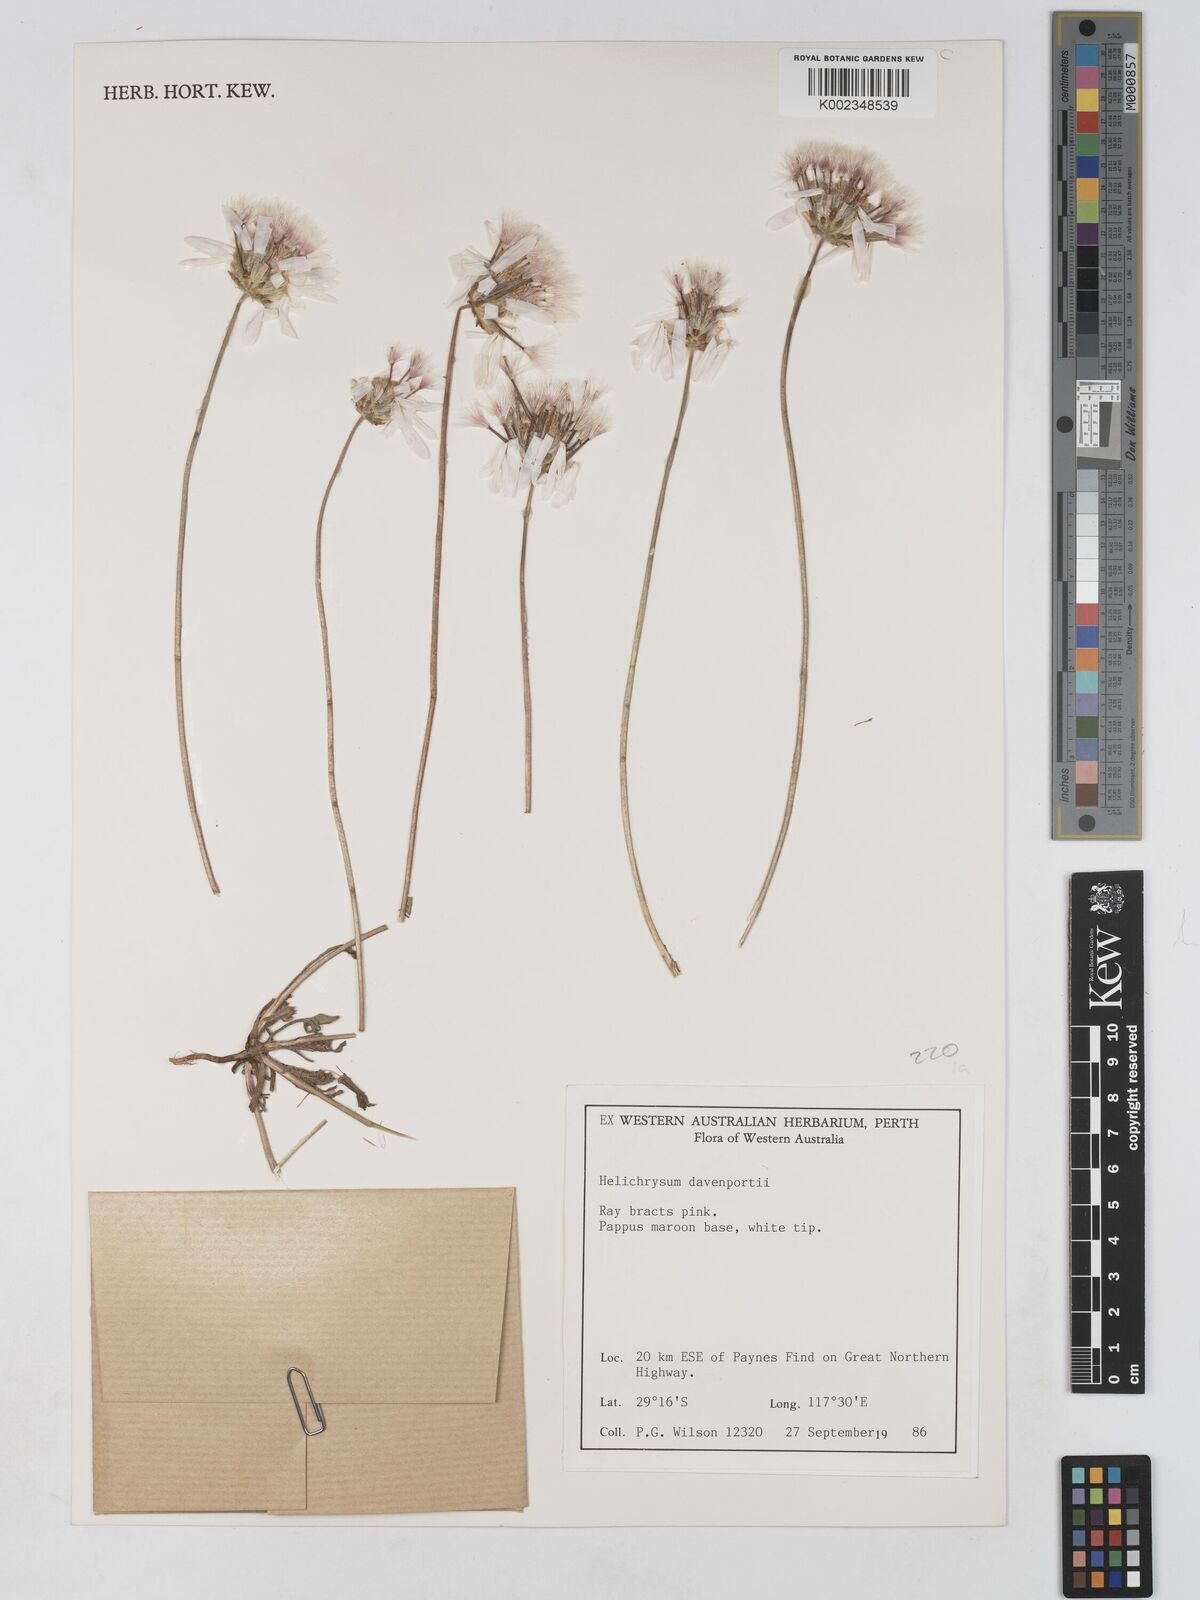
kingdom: Plantae
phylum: Tracheophyta
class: Magnoliopsida
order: Asterales
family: Asteraceae
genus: Lawrencella
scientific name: Lawrencella davenportii
